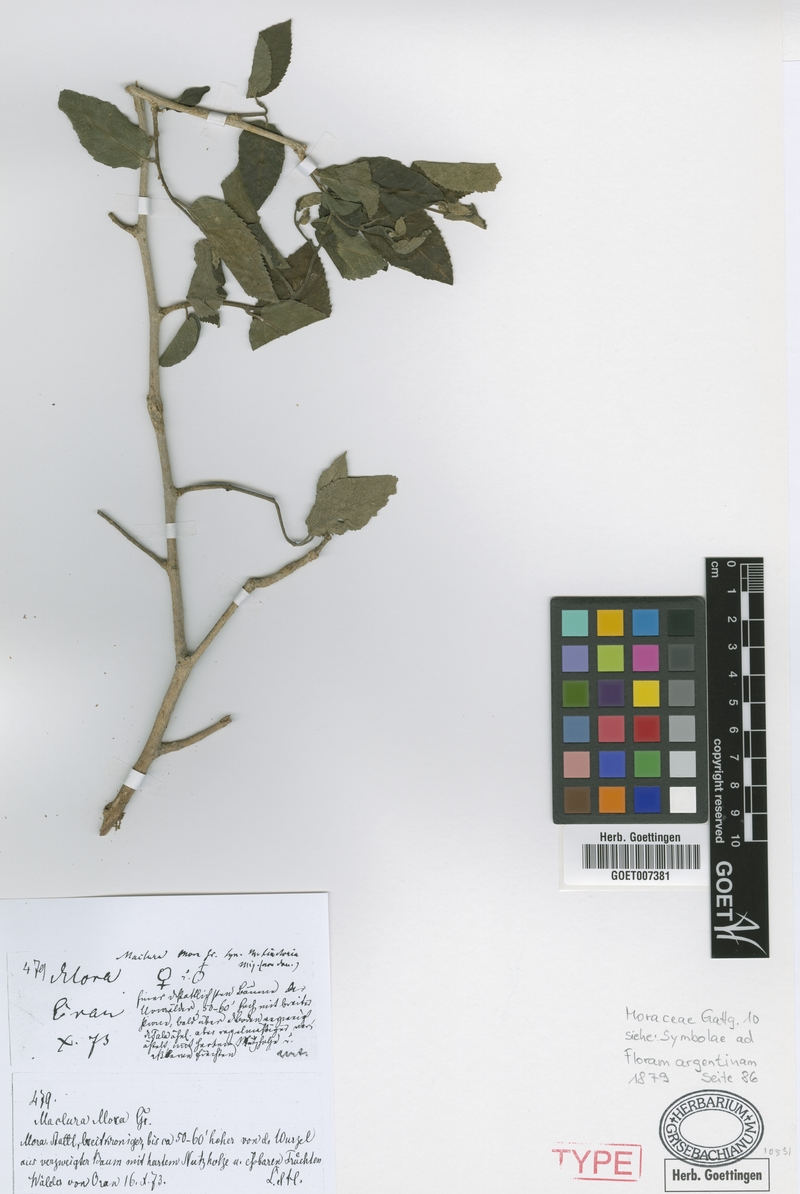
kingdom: Plantae
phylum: Tracheophyta
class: Magnoliopsida
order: Rosales
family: Moraceae
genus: Maclura
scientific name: Maclura tinctoria
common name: Old fustic
